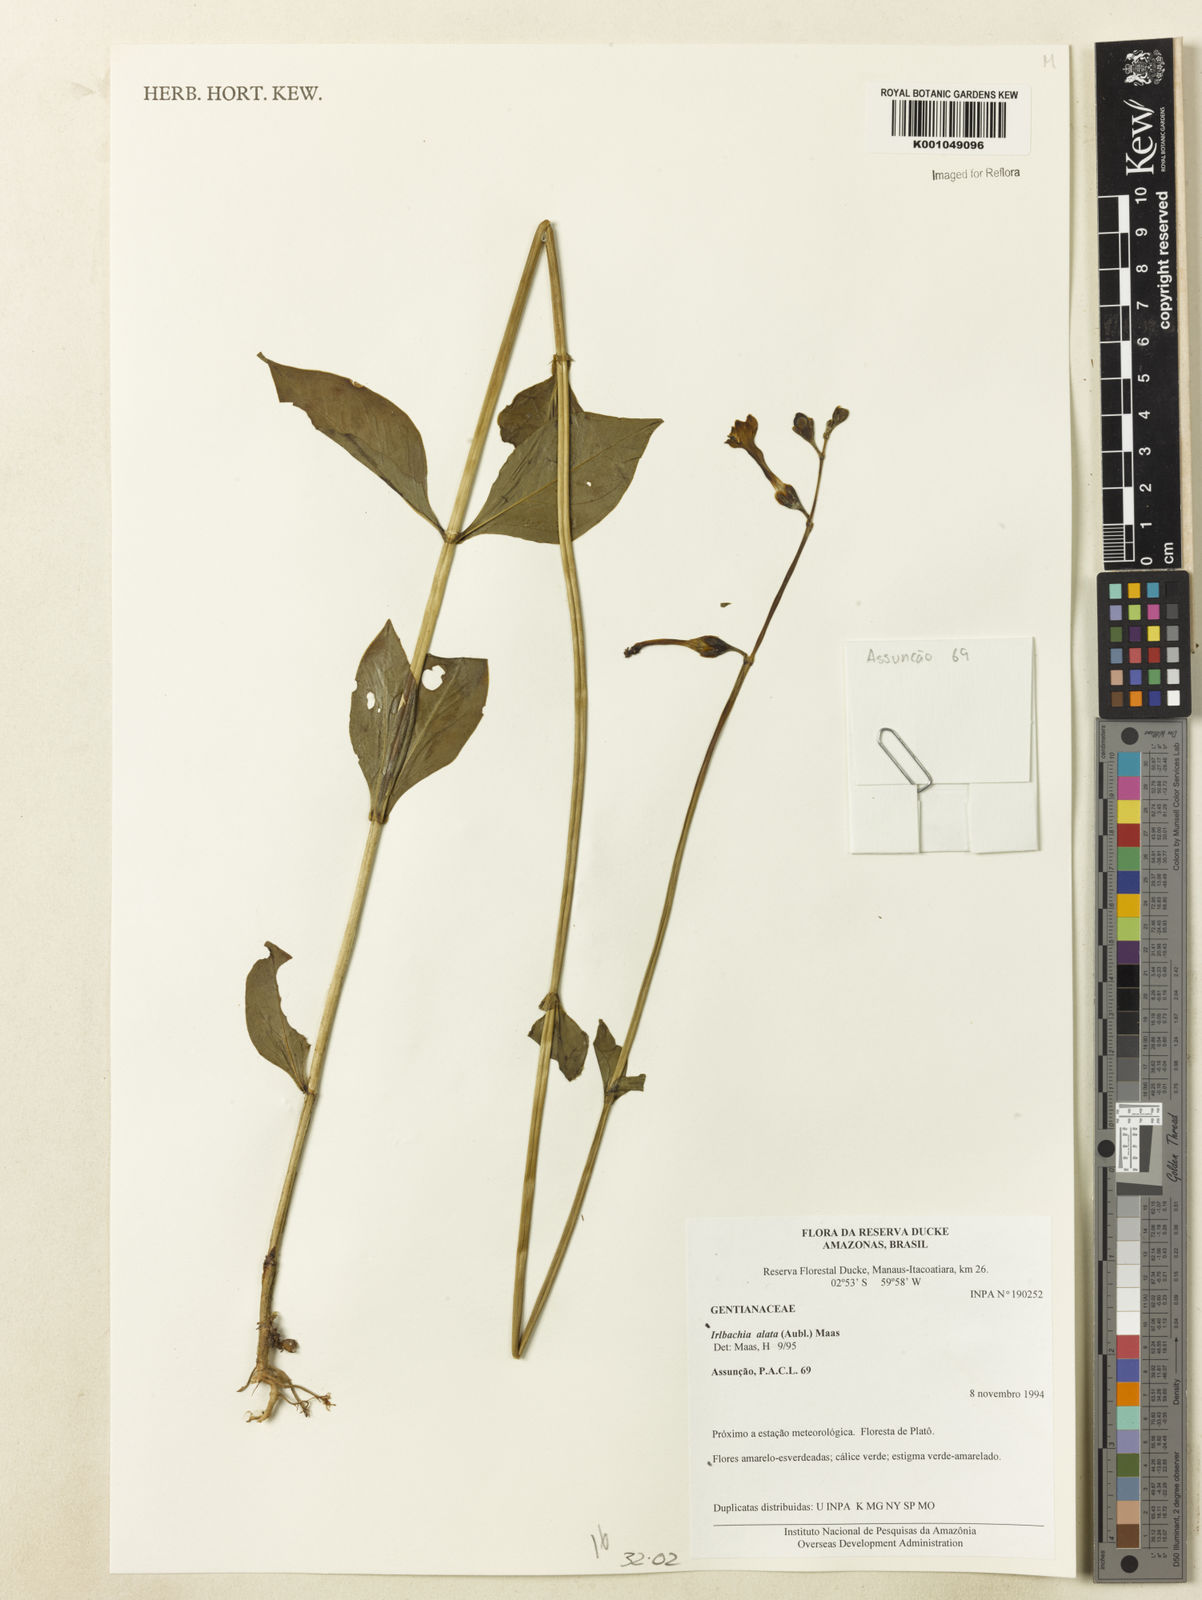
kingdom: Plantae
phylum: Tracheophyta
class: Magnoliopsida
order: Gentianales
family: Gentianaceae
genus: Chelonanthus
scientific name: Chelonanthus alatus
